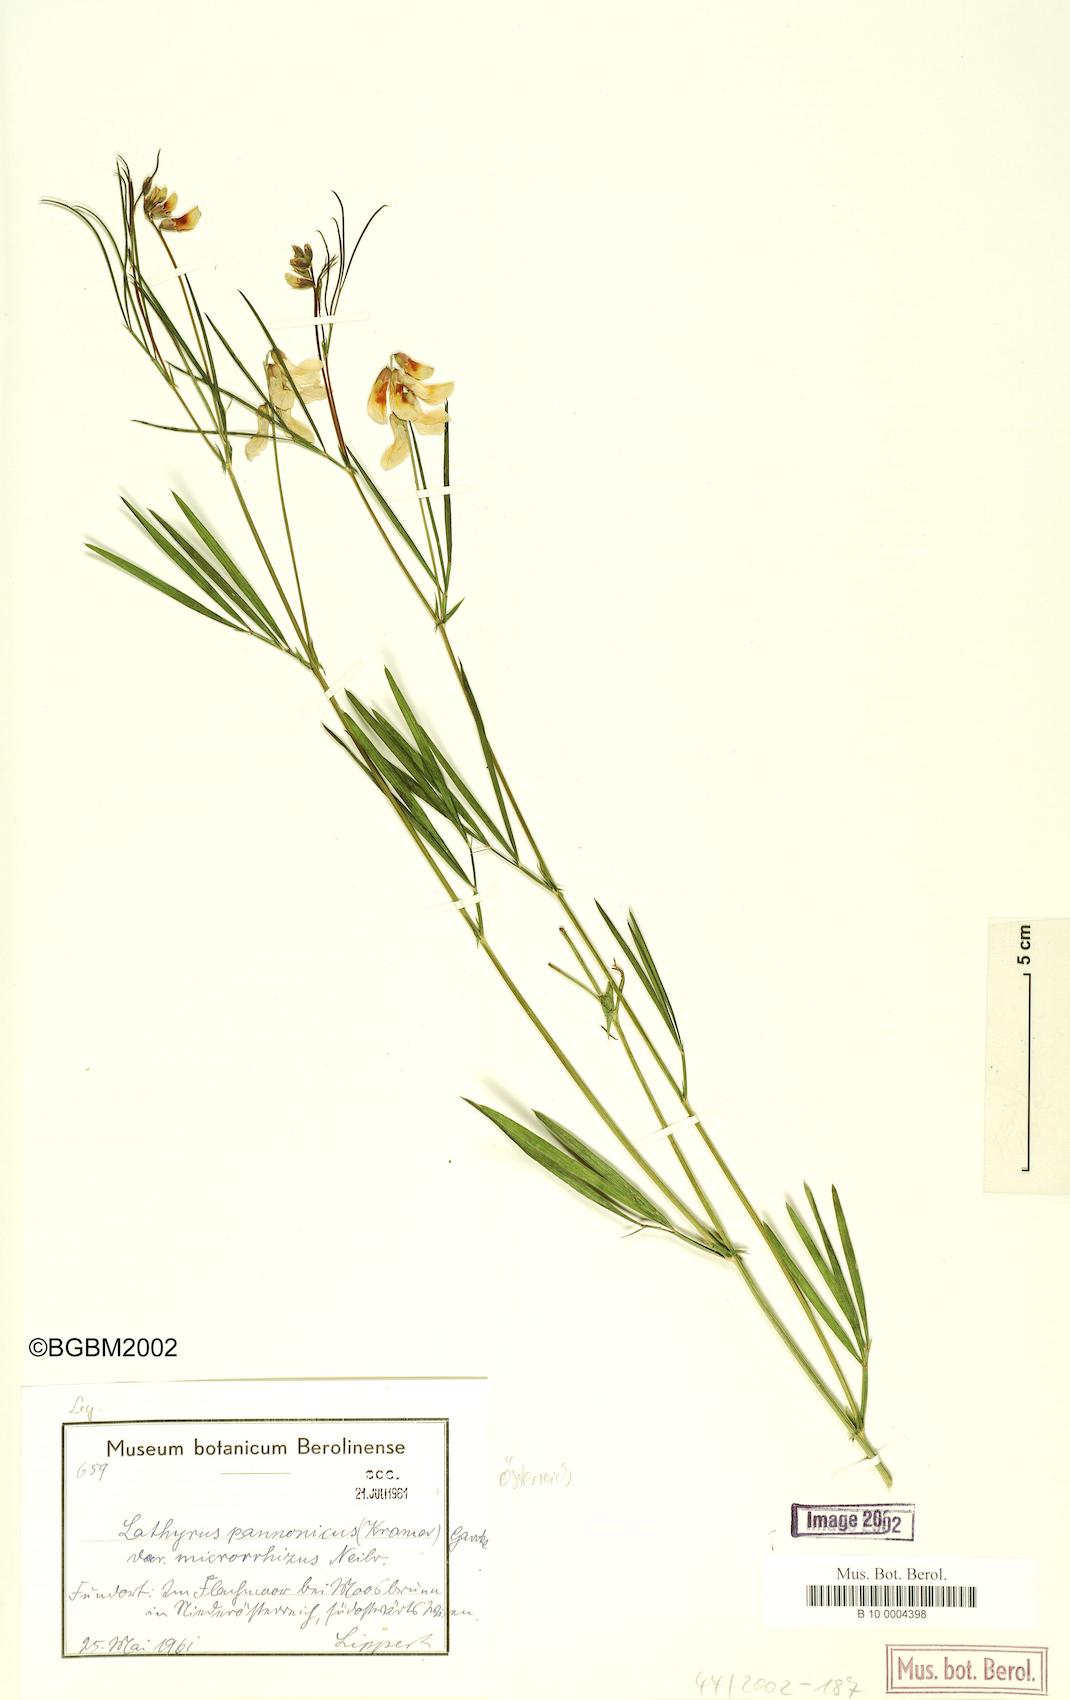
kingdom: Plantae
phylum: Tracheophyta
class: Magnoliopsida
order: Fabales
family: Fabaceae
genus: Lathyrus
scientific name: Lathyrus pannonicus
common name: Pea
